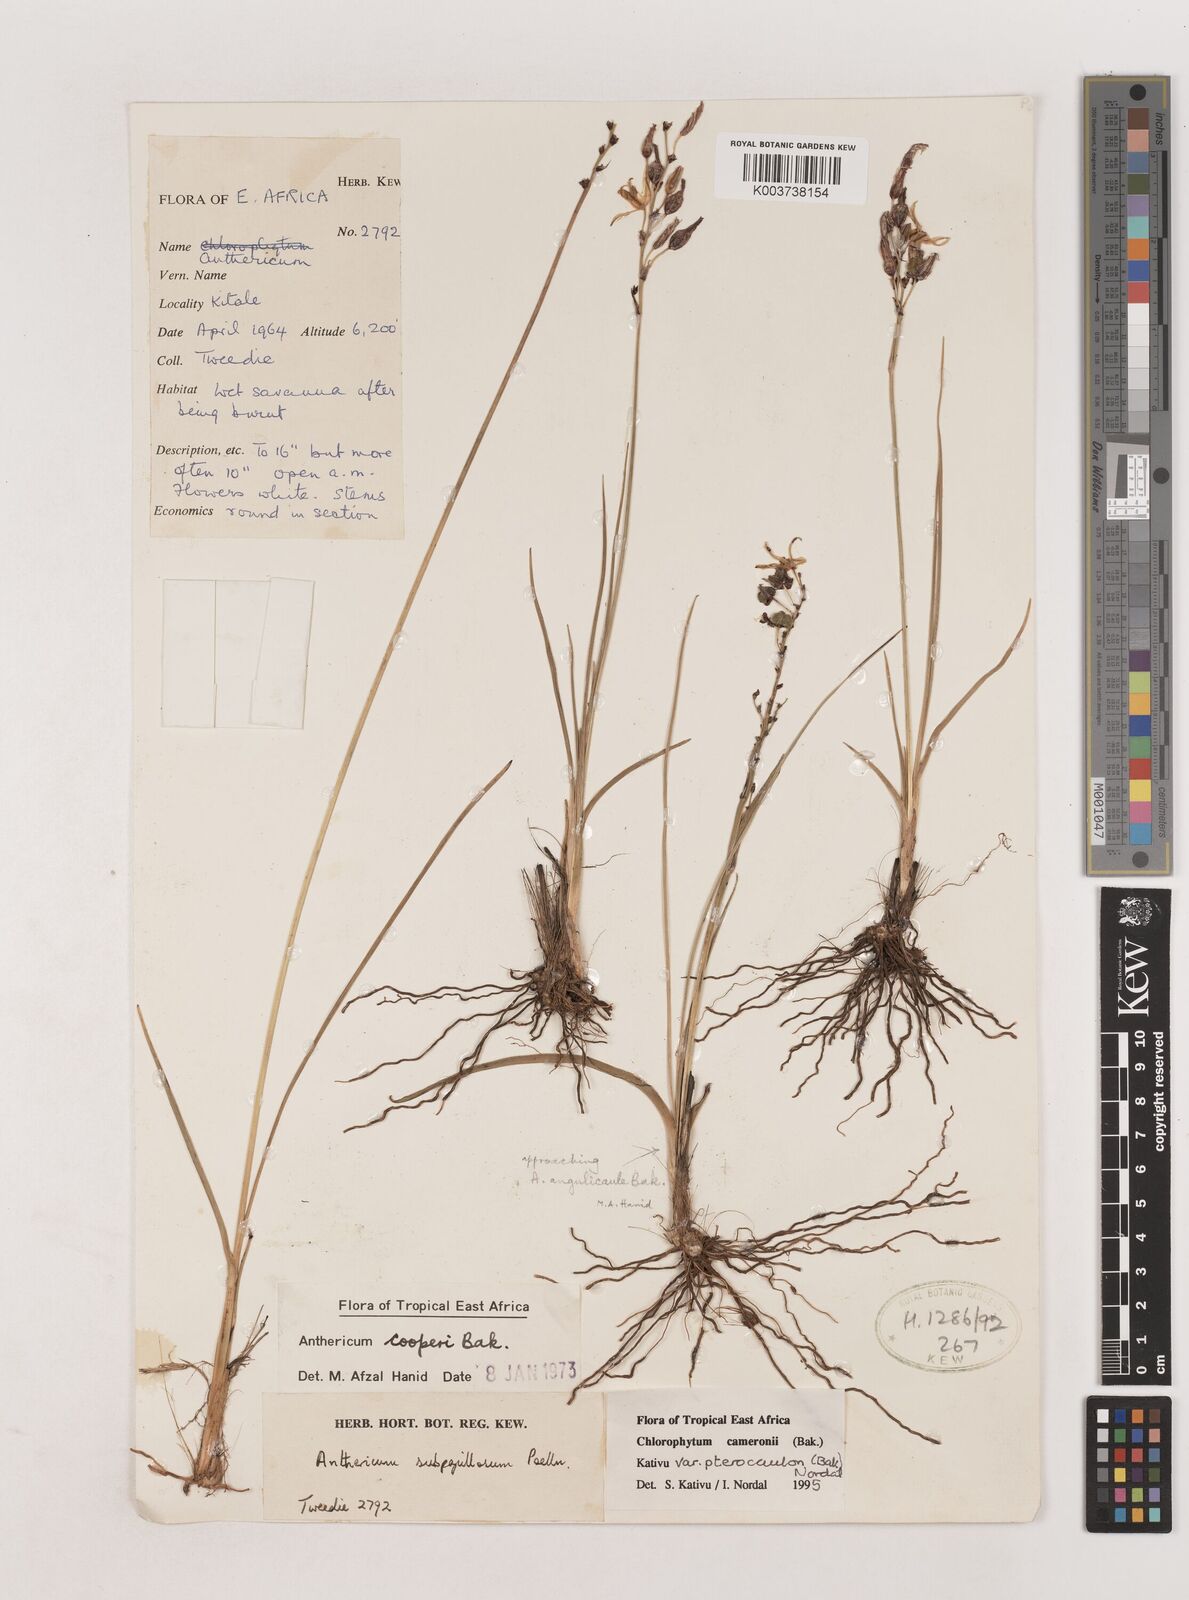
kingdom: Plantae
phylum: Tracheophyta
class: Liliopsida
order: Asparagales
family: Asparagaceae
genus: Chlorophytum
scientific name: Chlorophytum cameronii
